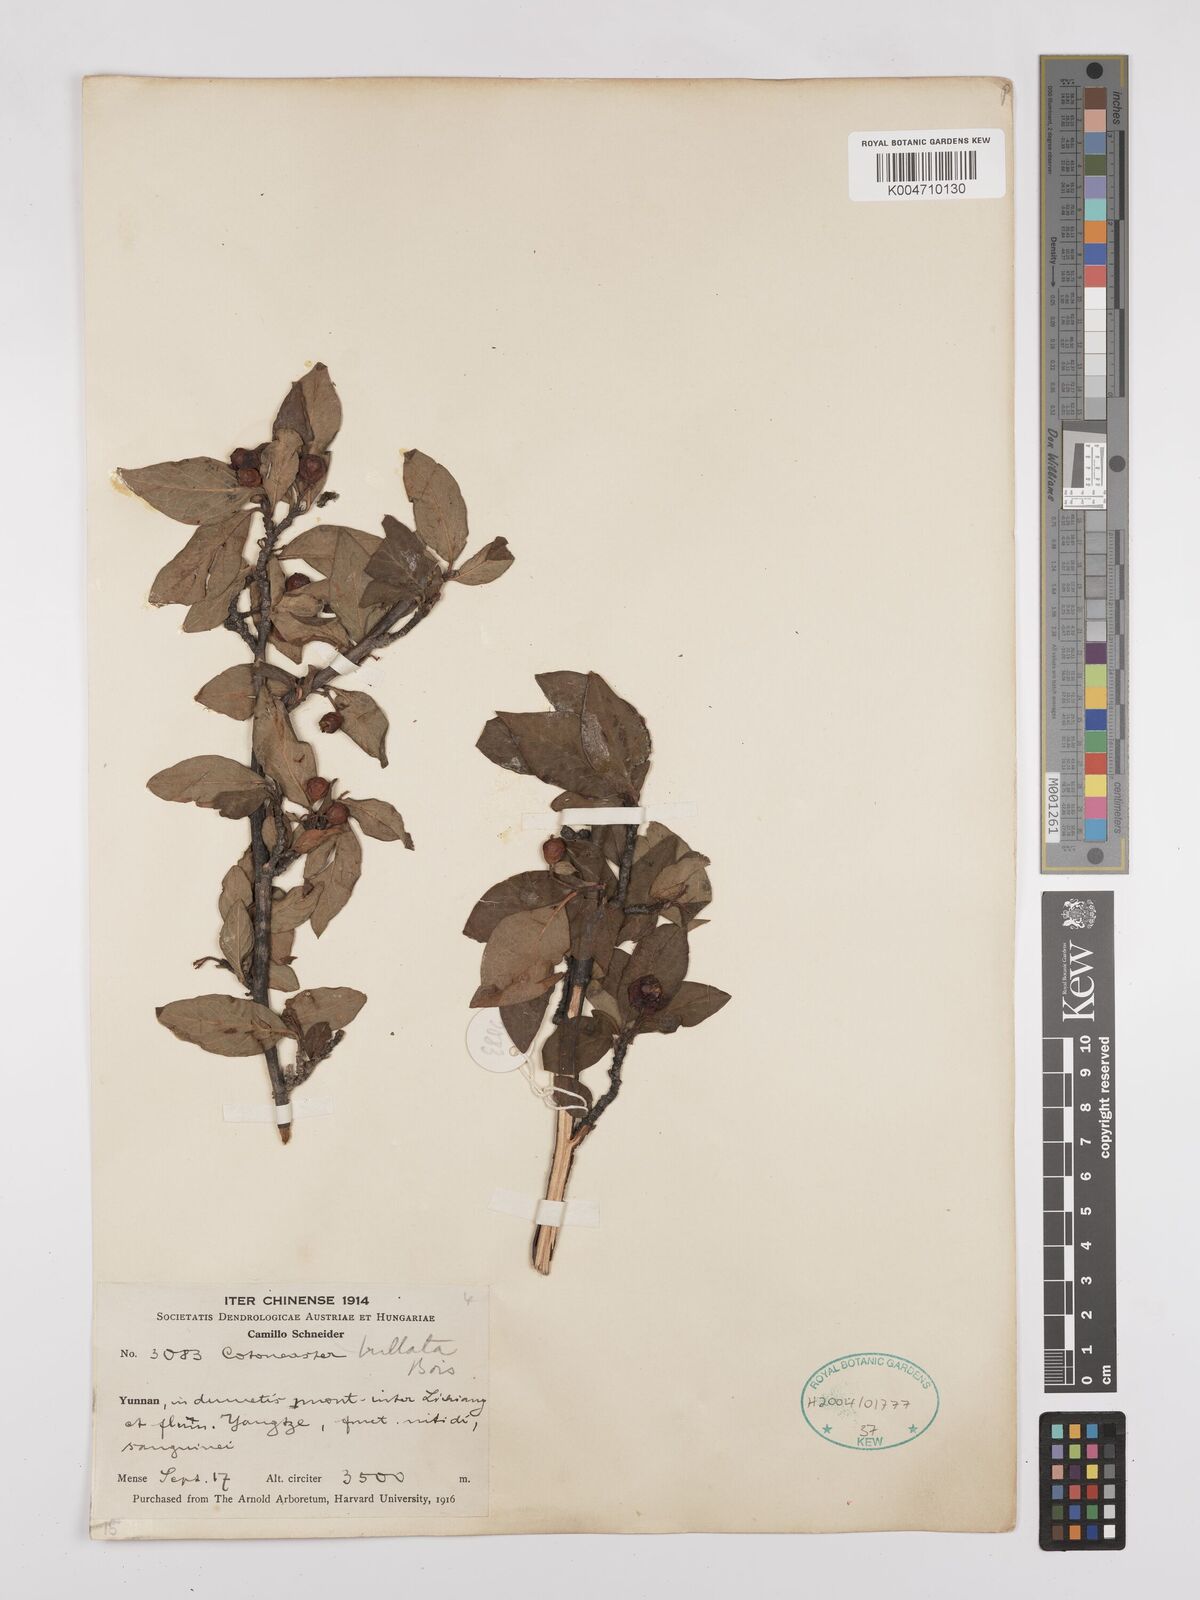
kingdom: Plantae
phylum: Tracheophyta
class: Magnoliopsida
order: Rosales
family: Rosaceae
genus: Cotoneaster
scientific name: Cotoneaster bullatus
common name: Hollyberry cotoneaster
